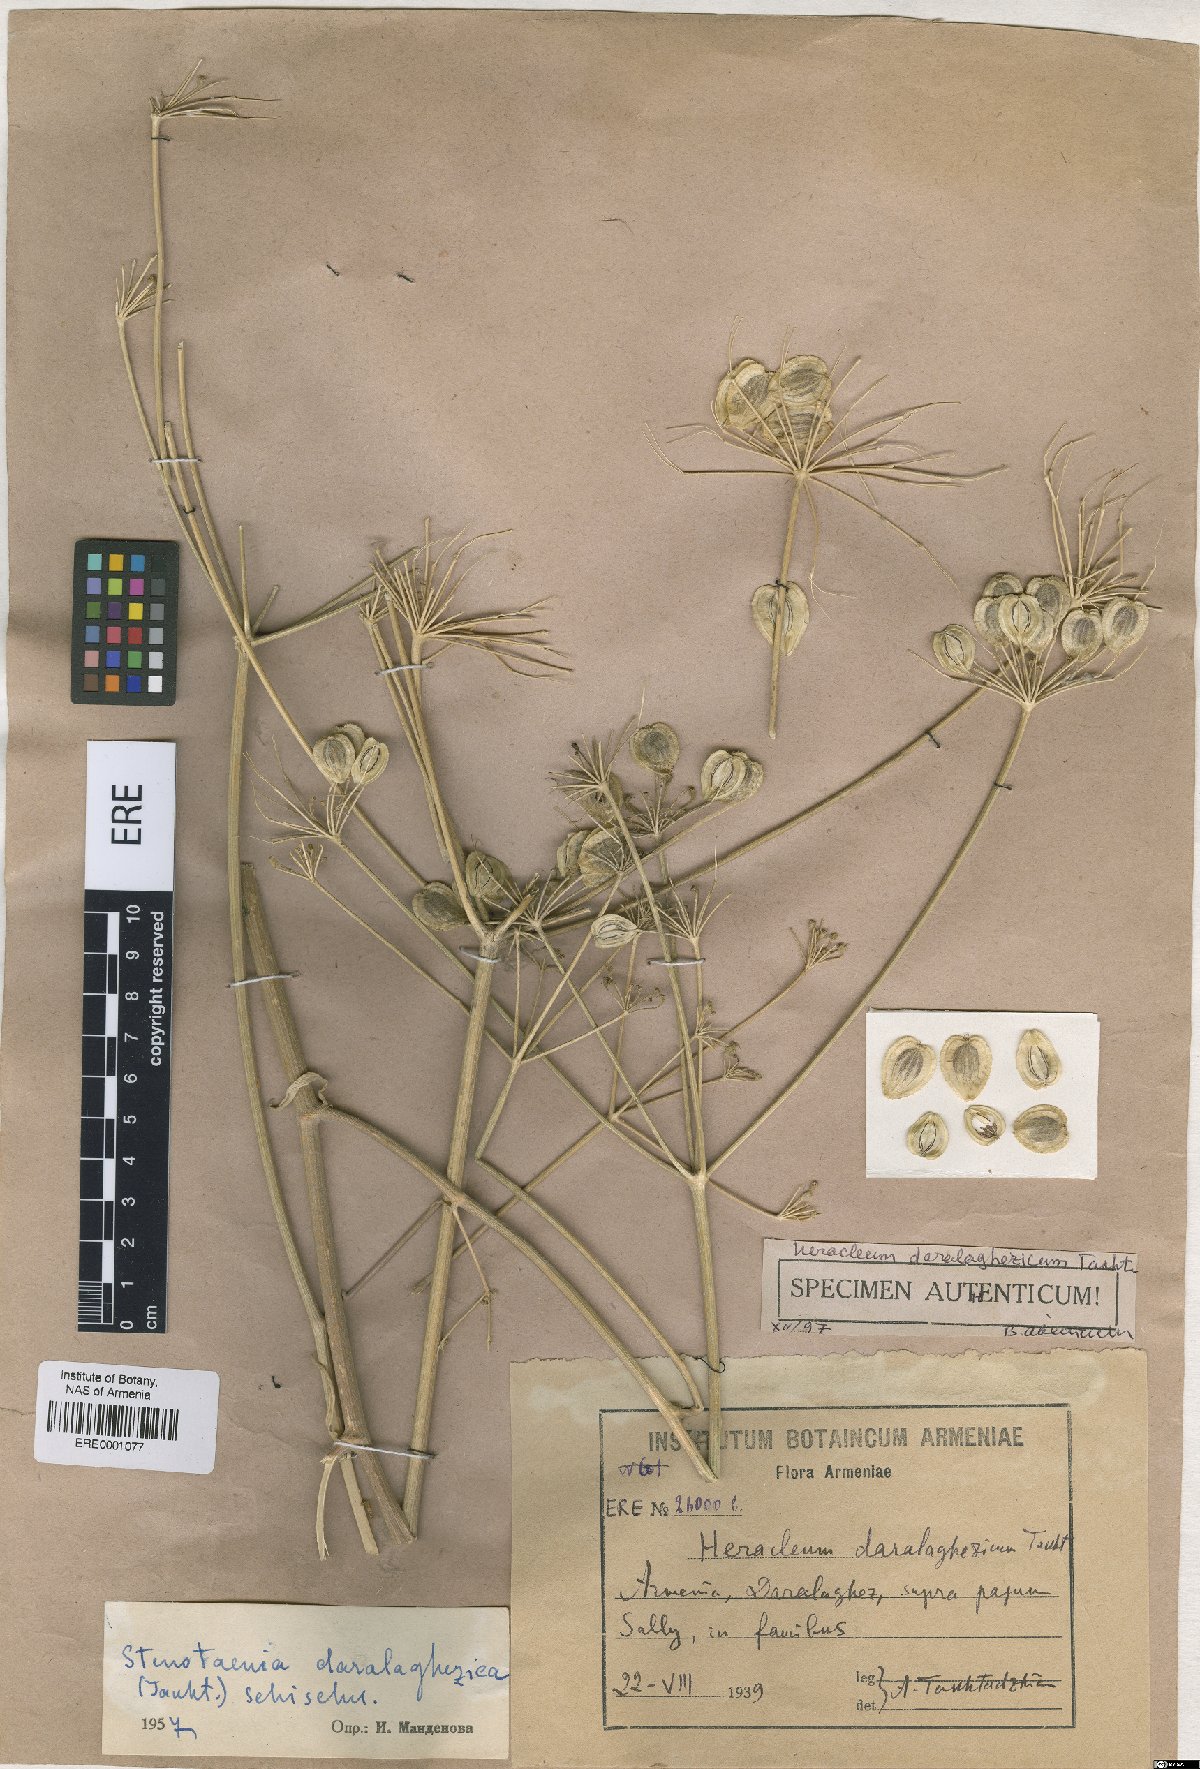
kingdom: Plantae
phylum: Tracheophyta
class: Magnoliopsida
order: Apiales
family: Apiaceae
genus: Stenotaenia
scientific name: Stenotaenia daralaghezica
